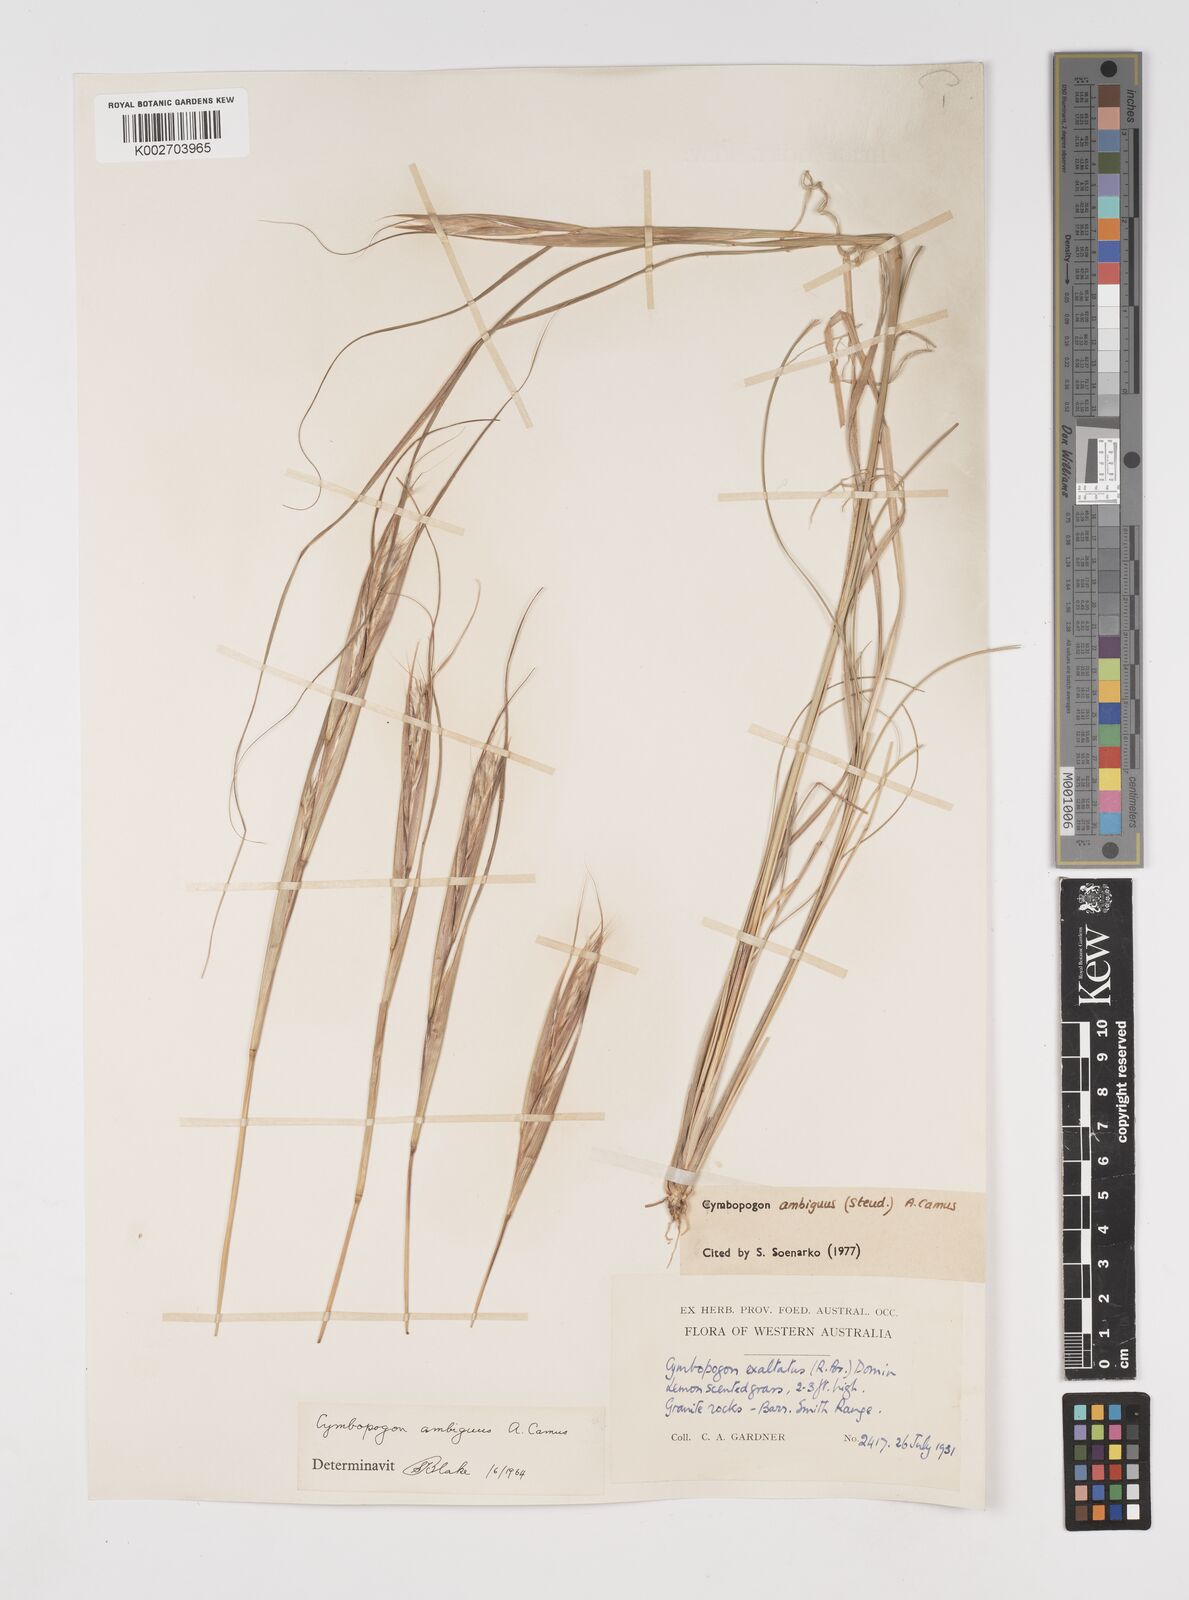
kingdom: Plantae
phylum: Tracheophyta
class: Liliopsida
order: Poales
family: Poaceae
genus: Cymbopogon
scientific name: Cymbopogon ambiguus
